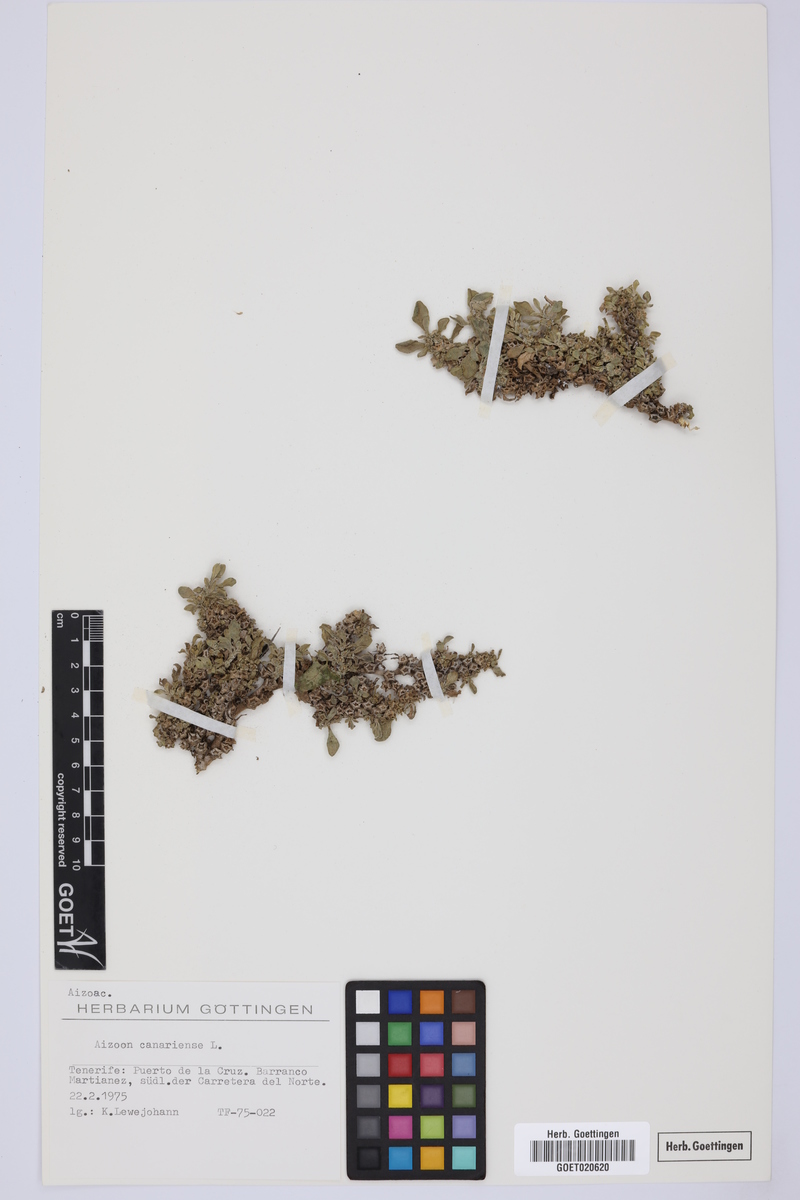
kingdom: Plantae
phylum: Tracheophyta
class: Magnoliopsida
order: Caryophyllales
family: Aizoaceae
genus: Aizoon
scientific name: Aizoon canariense
